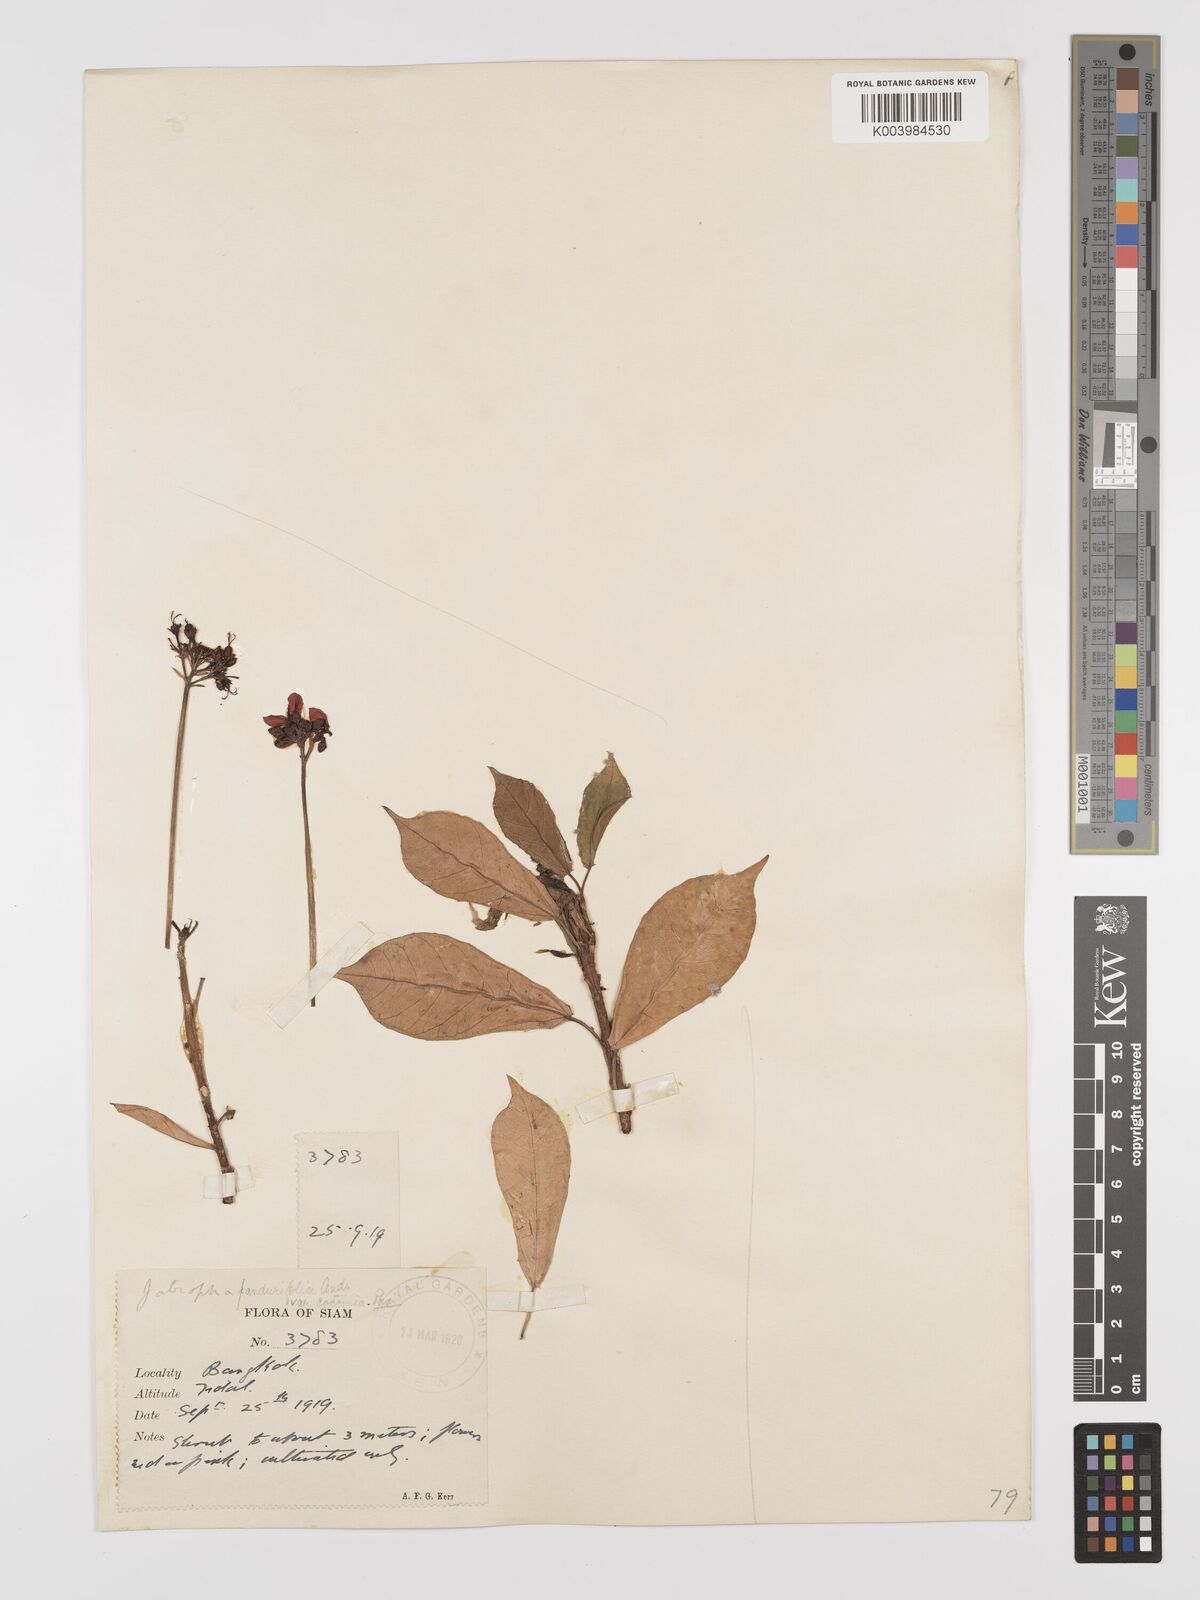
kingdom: Plantae
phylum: Tracheophyta
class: Magnoliopsida
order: Malpighiales
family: Euphorbiaceae
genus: Jatropha
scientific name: Jatropha integerrima
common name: Peregrina
